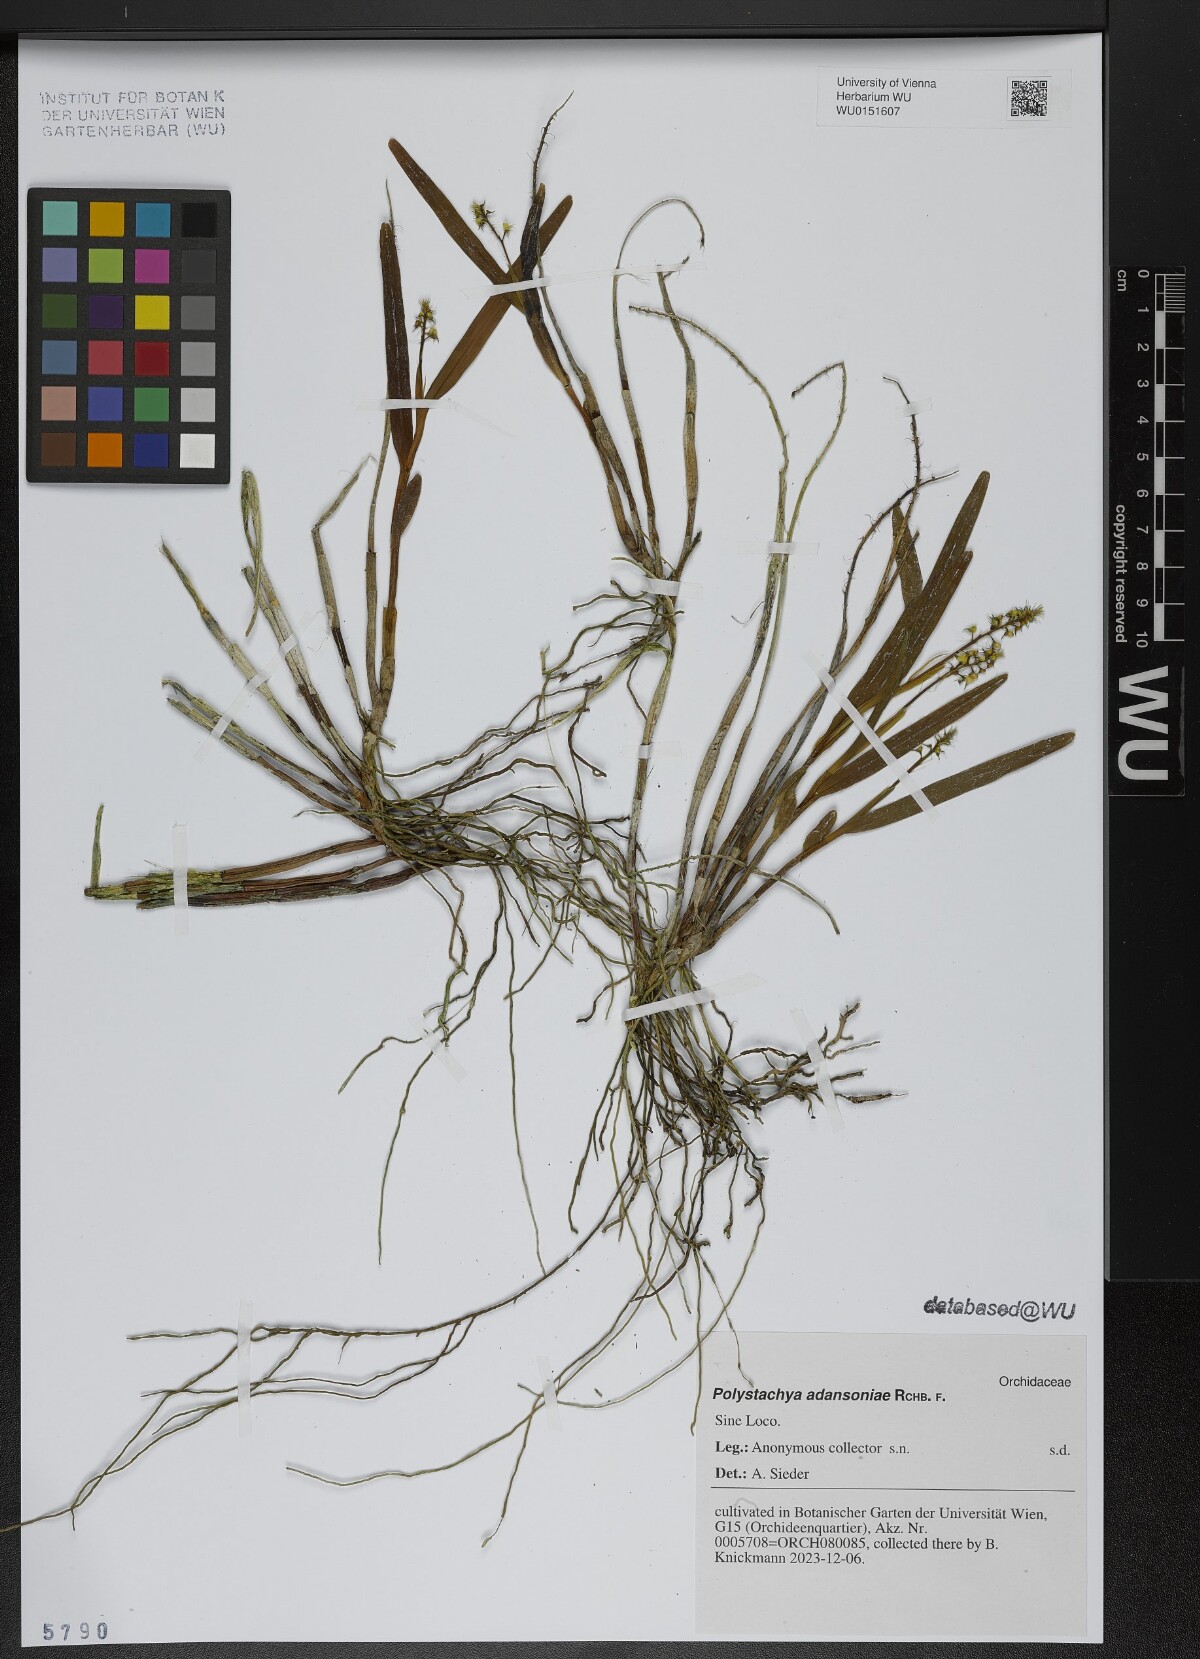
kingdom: Plantae
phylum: Tracheophyta
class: Liliopsida
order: Asparagales
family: Orchidaceae
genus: Polystachya
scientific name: Polystachya adansoniae
